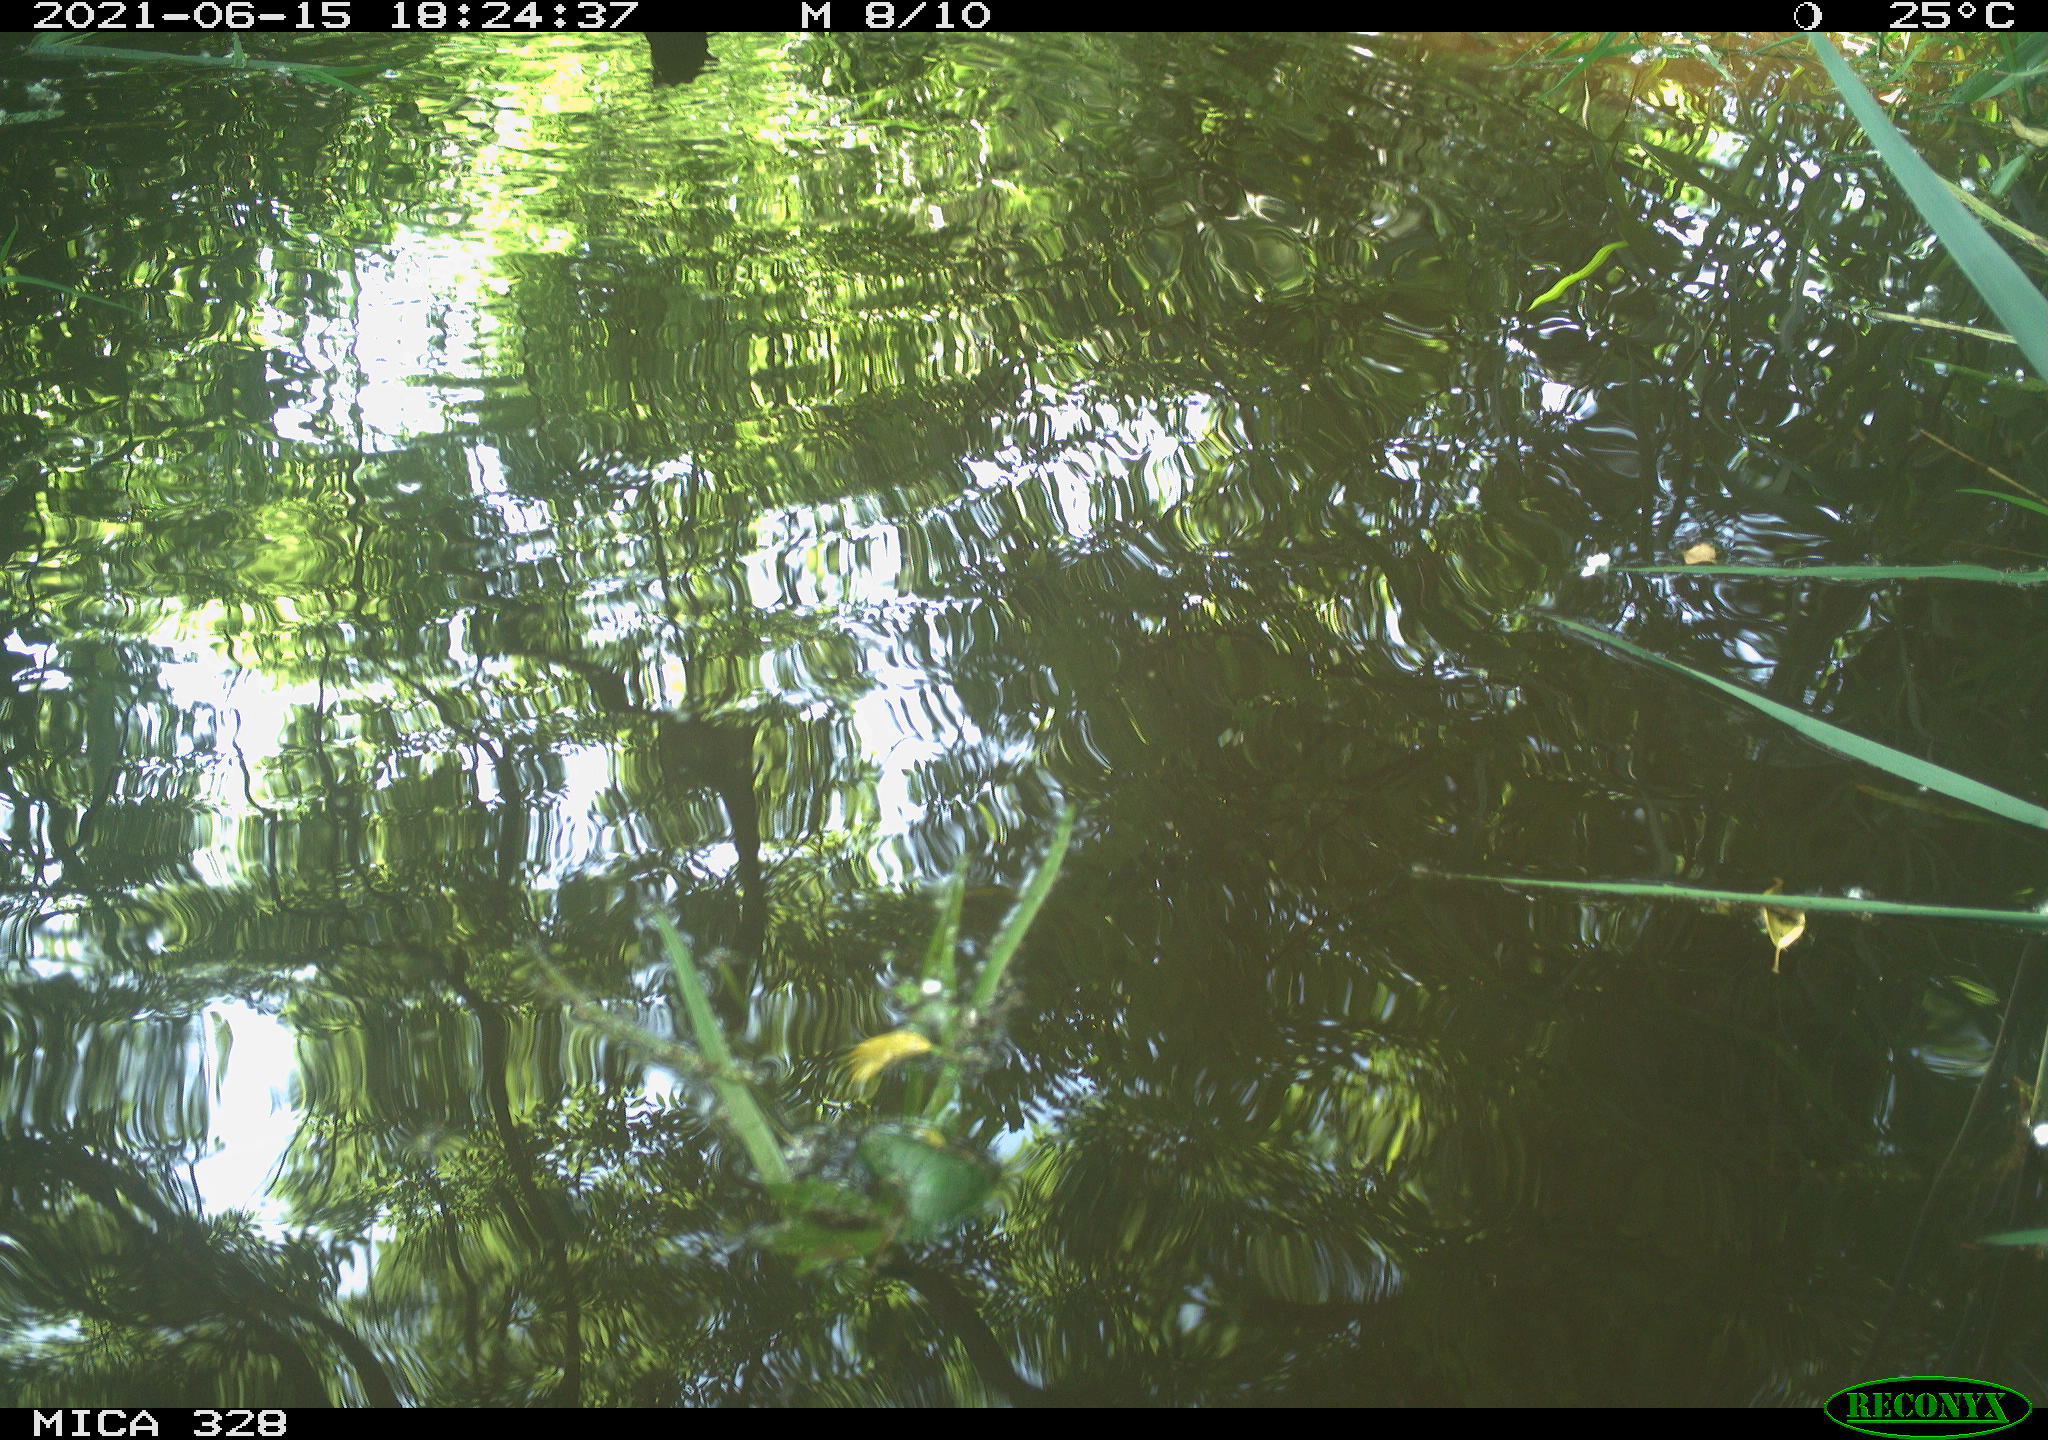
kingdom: Animalia
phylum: Chordata
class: Aves
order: Anseriformes
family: Anatidae
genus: Aix
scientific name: Aix galericulata
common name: Mandarin duck
